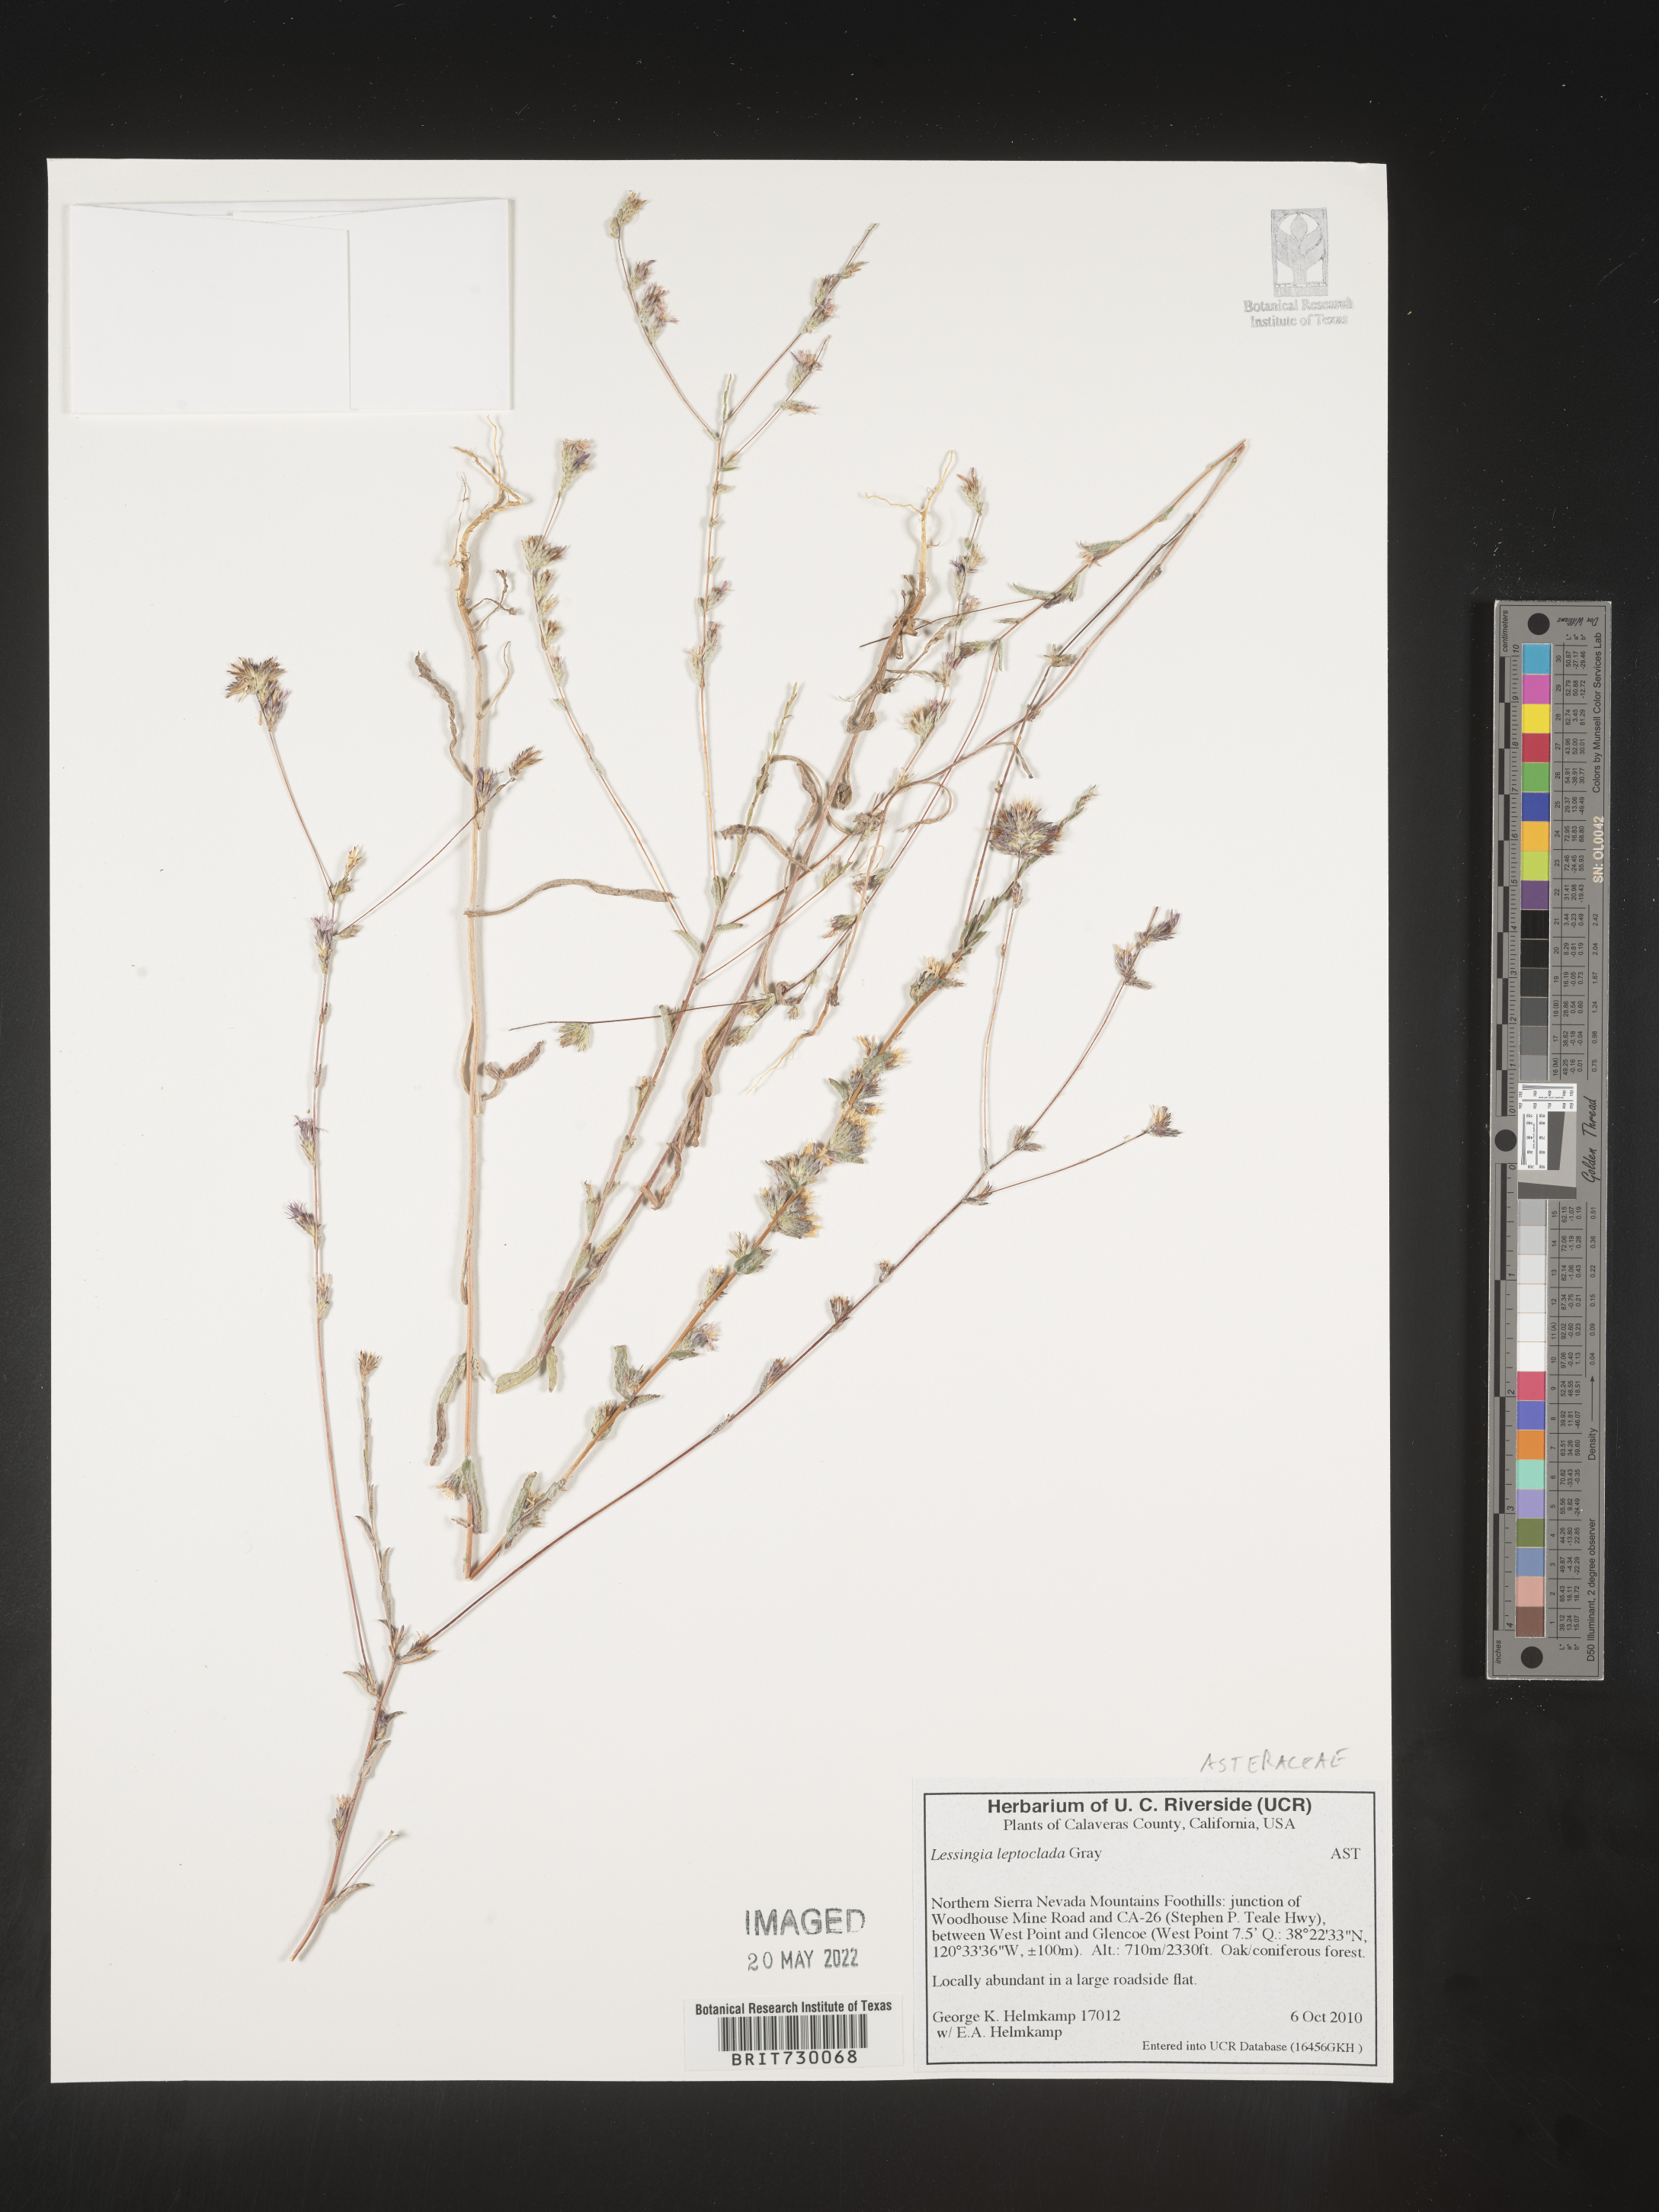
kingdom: Plantae
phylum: Tracheophyta
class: Magnoliopsida
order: Asterales
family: Asteraceae
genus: Lessingia
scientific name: Lessingia
